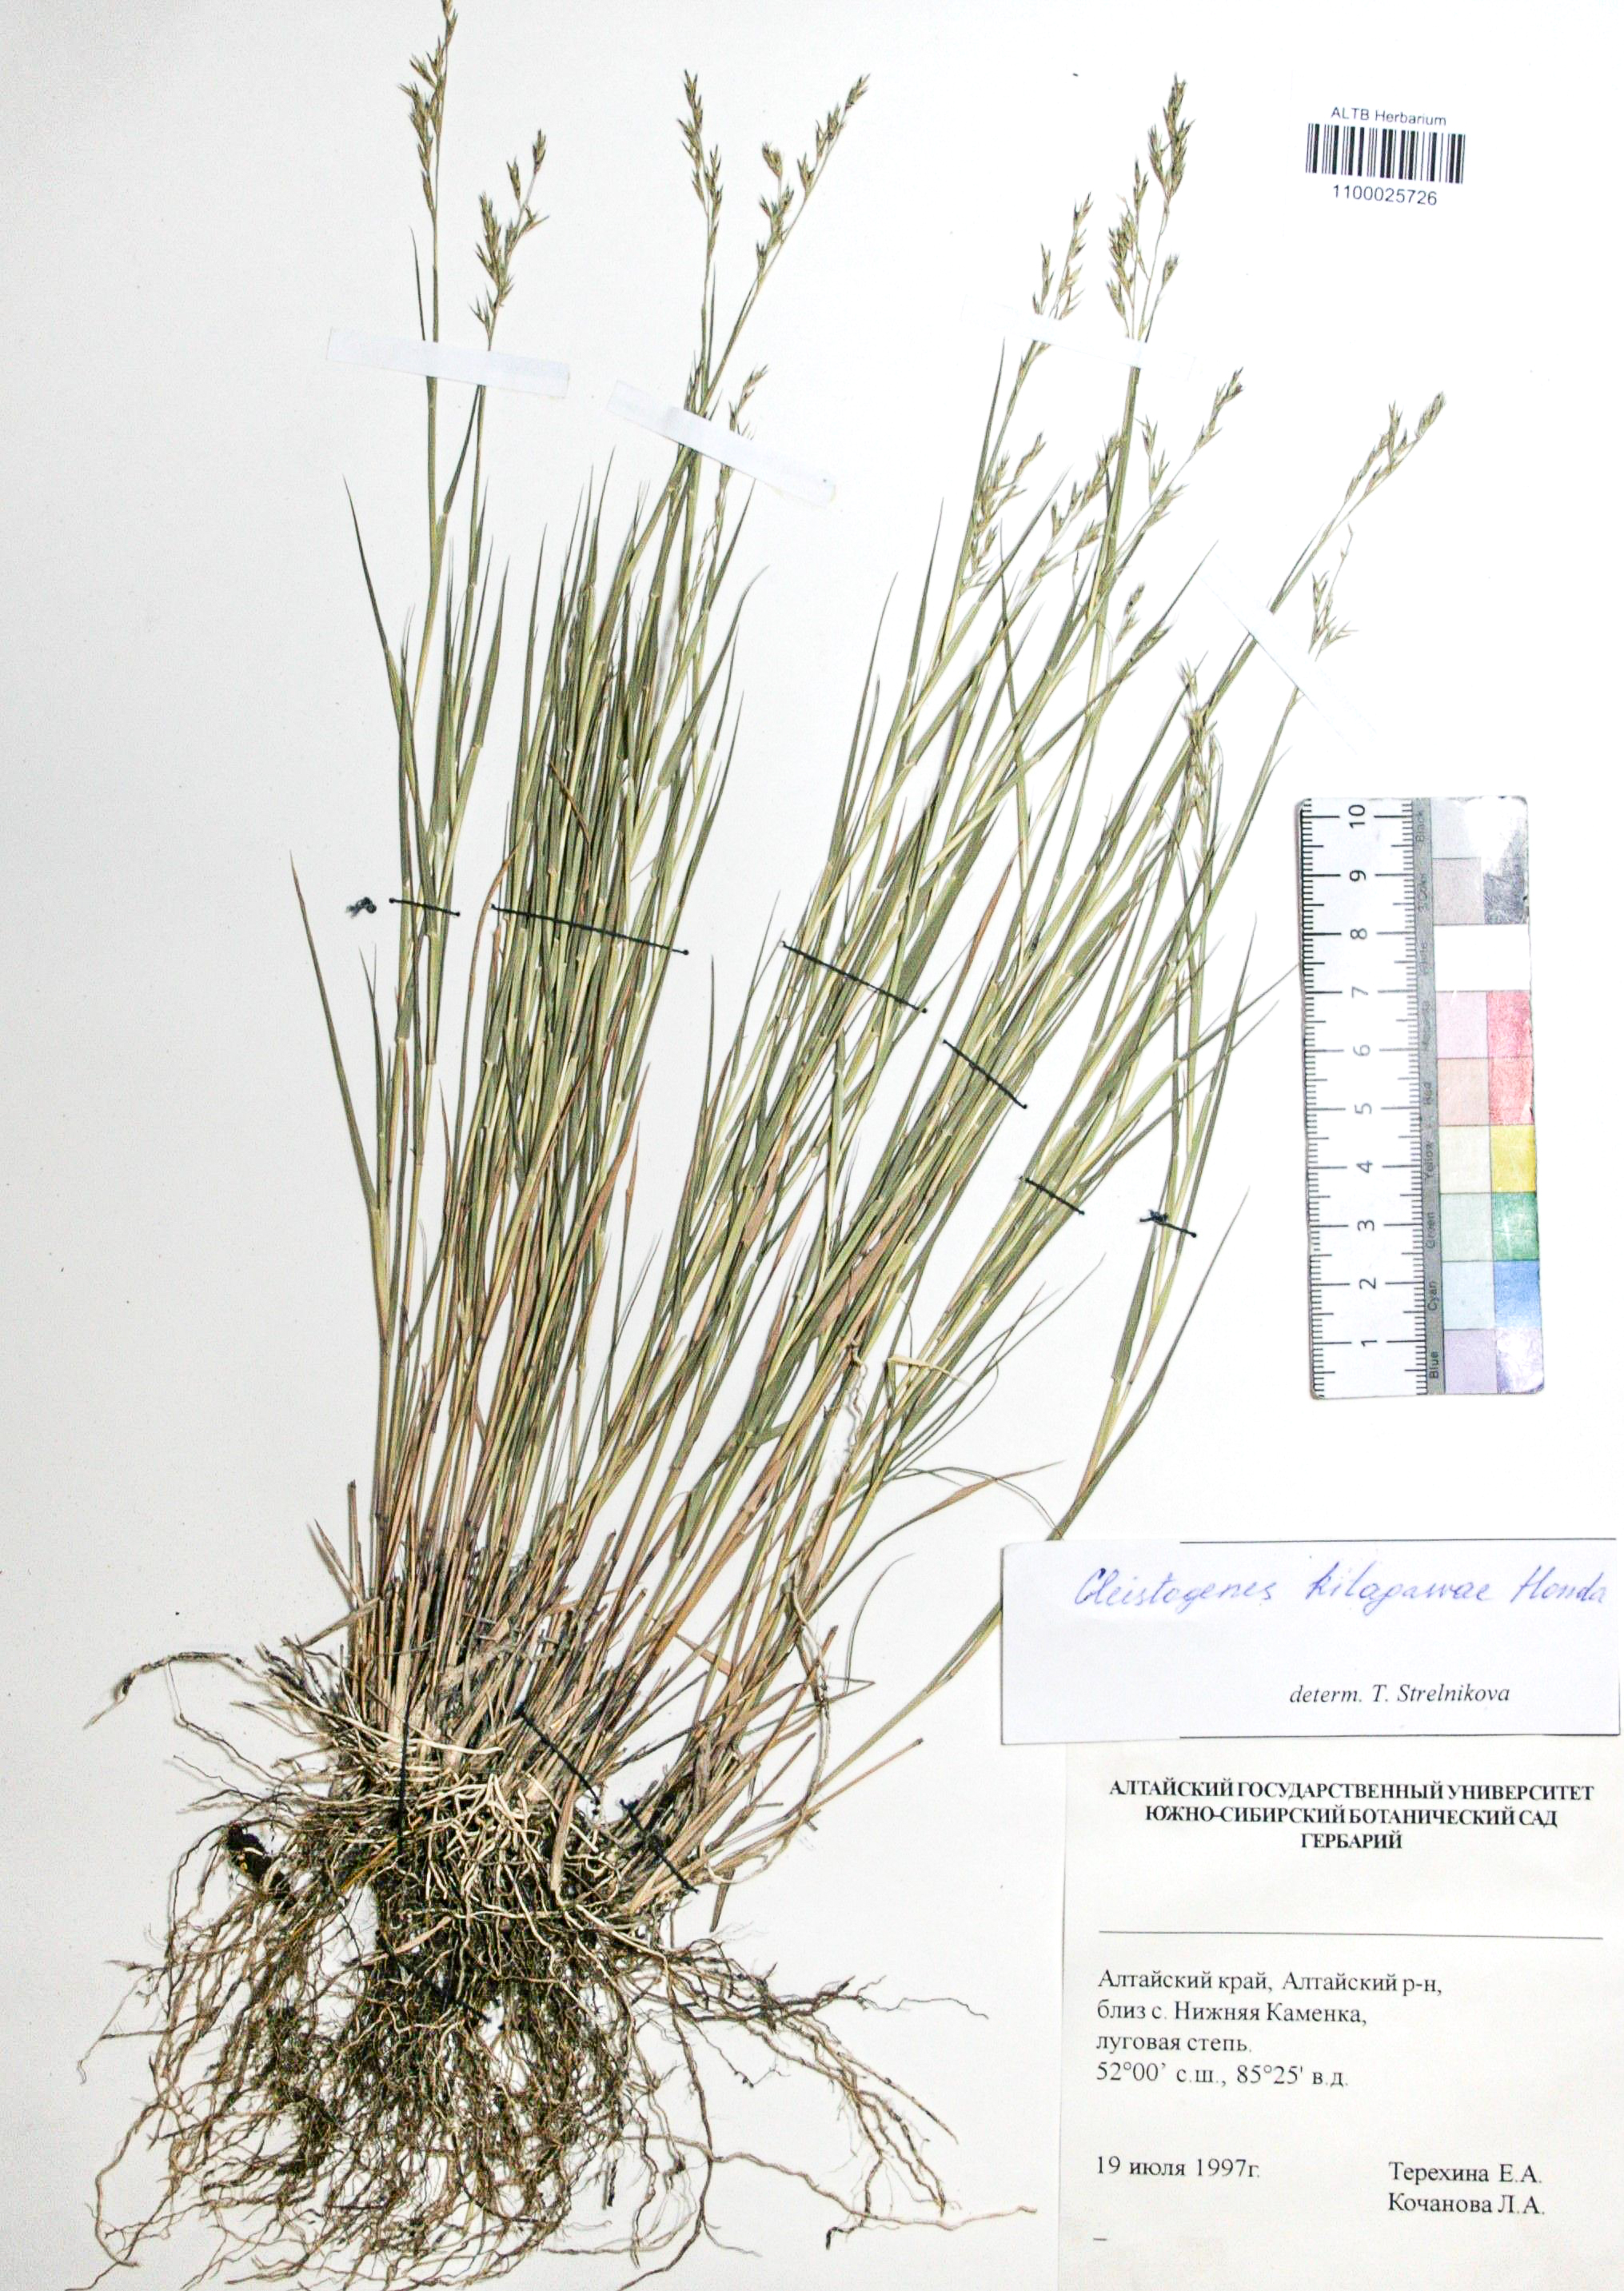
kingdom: Plantae
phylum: Tracheophyta
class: Liliopsida
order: Poales
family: Poaceae
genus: Cleistogenes
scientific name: Cleistogenes kitagawae
